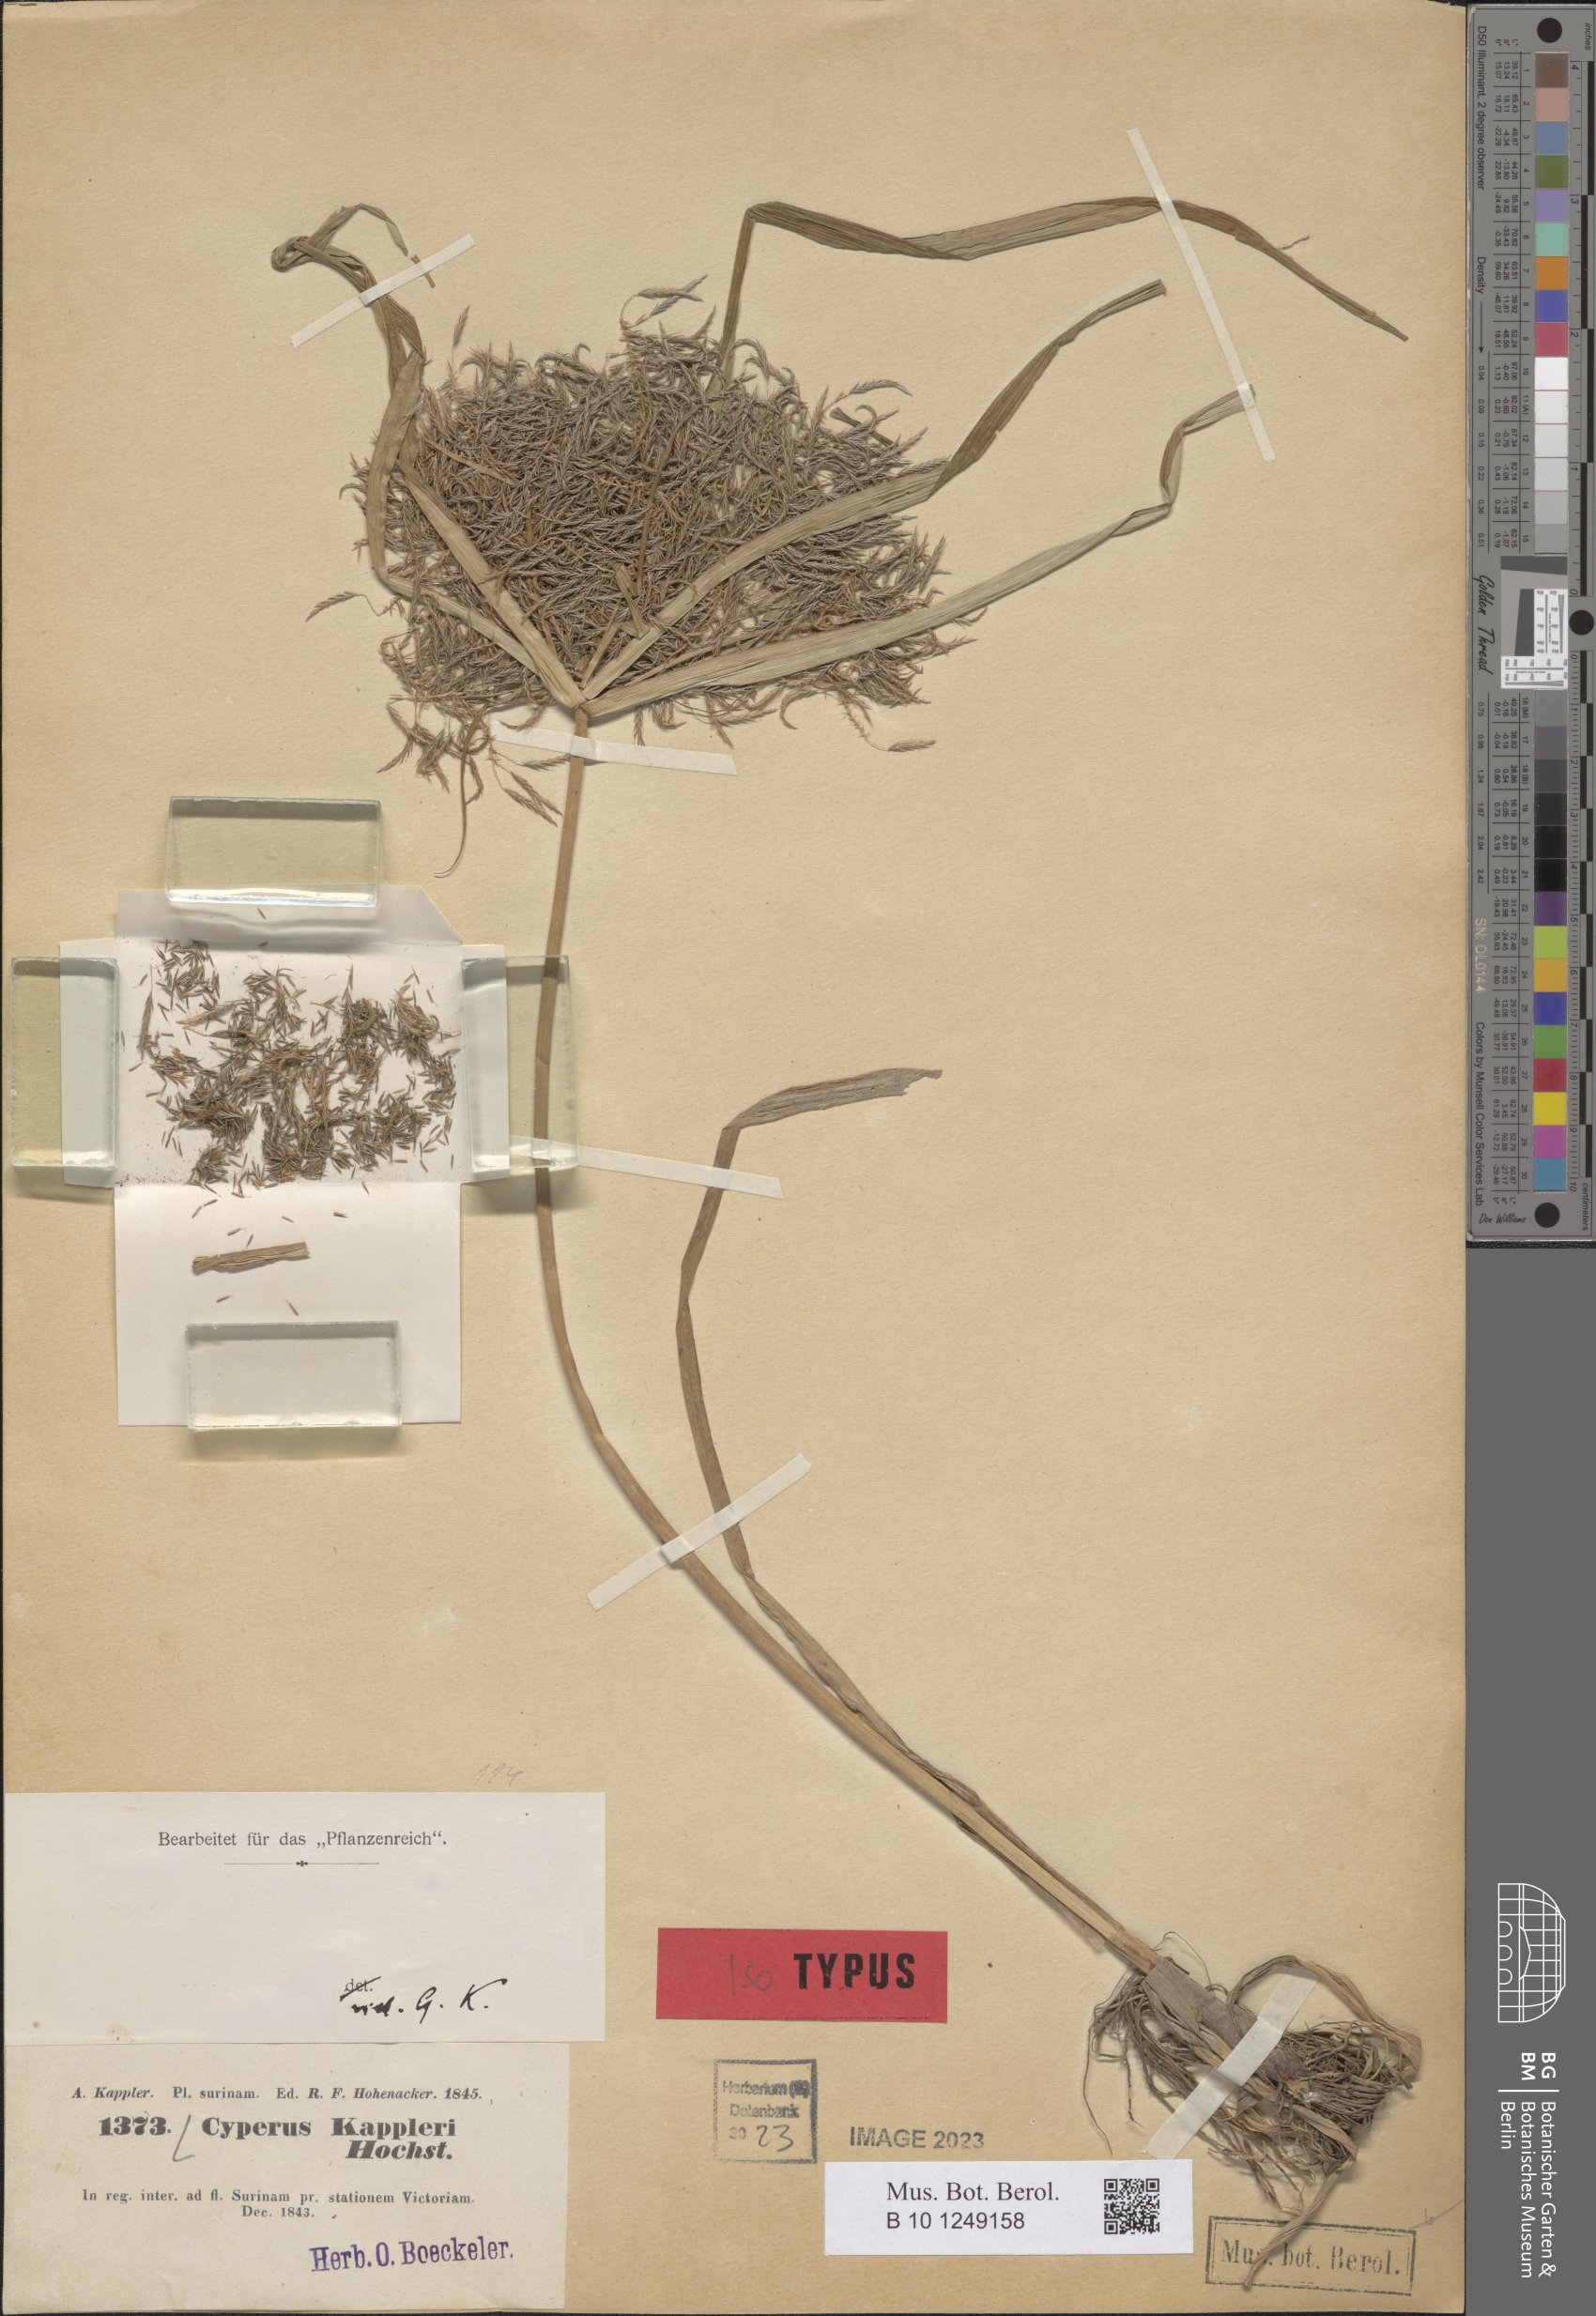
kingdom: Plantae
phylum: Tracheophyta
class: Liliopsida
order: Poales
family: Cyperaceae
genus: Cyperus
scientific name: Cyperus kappleri
